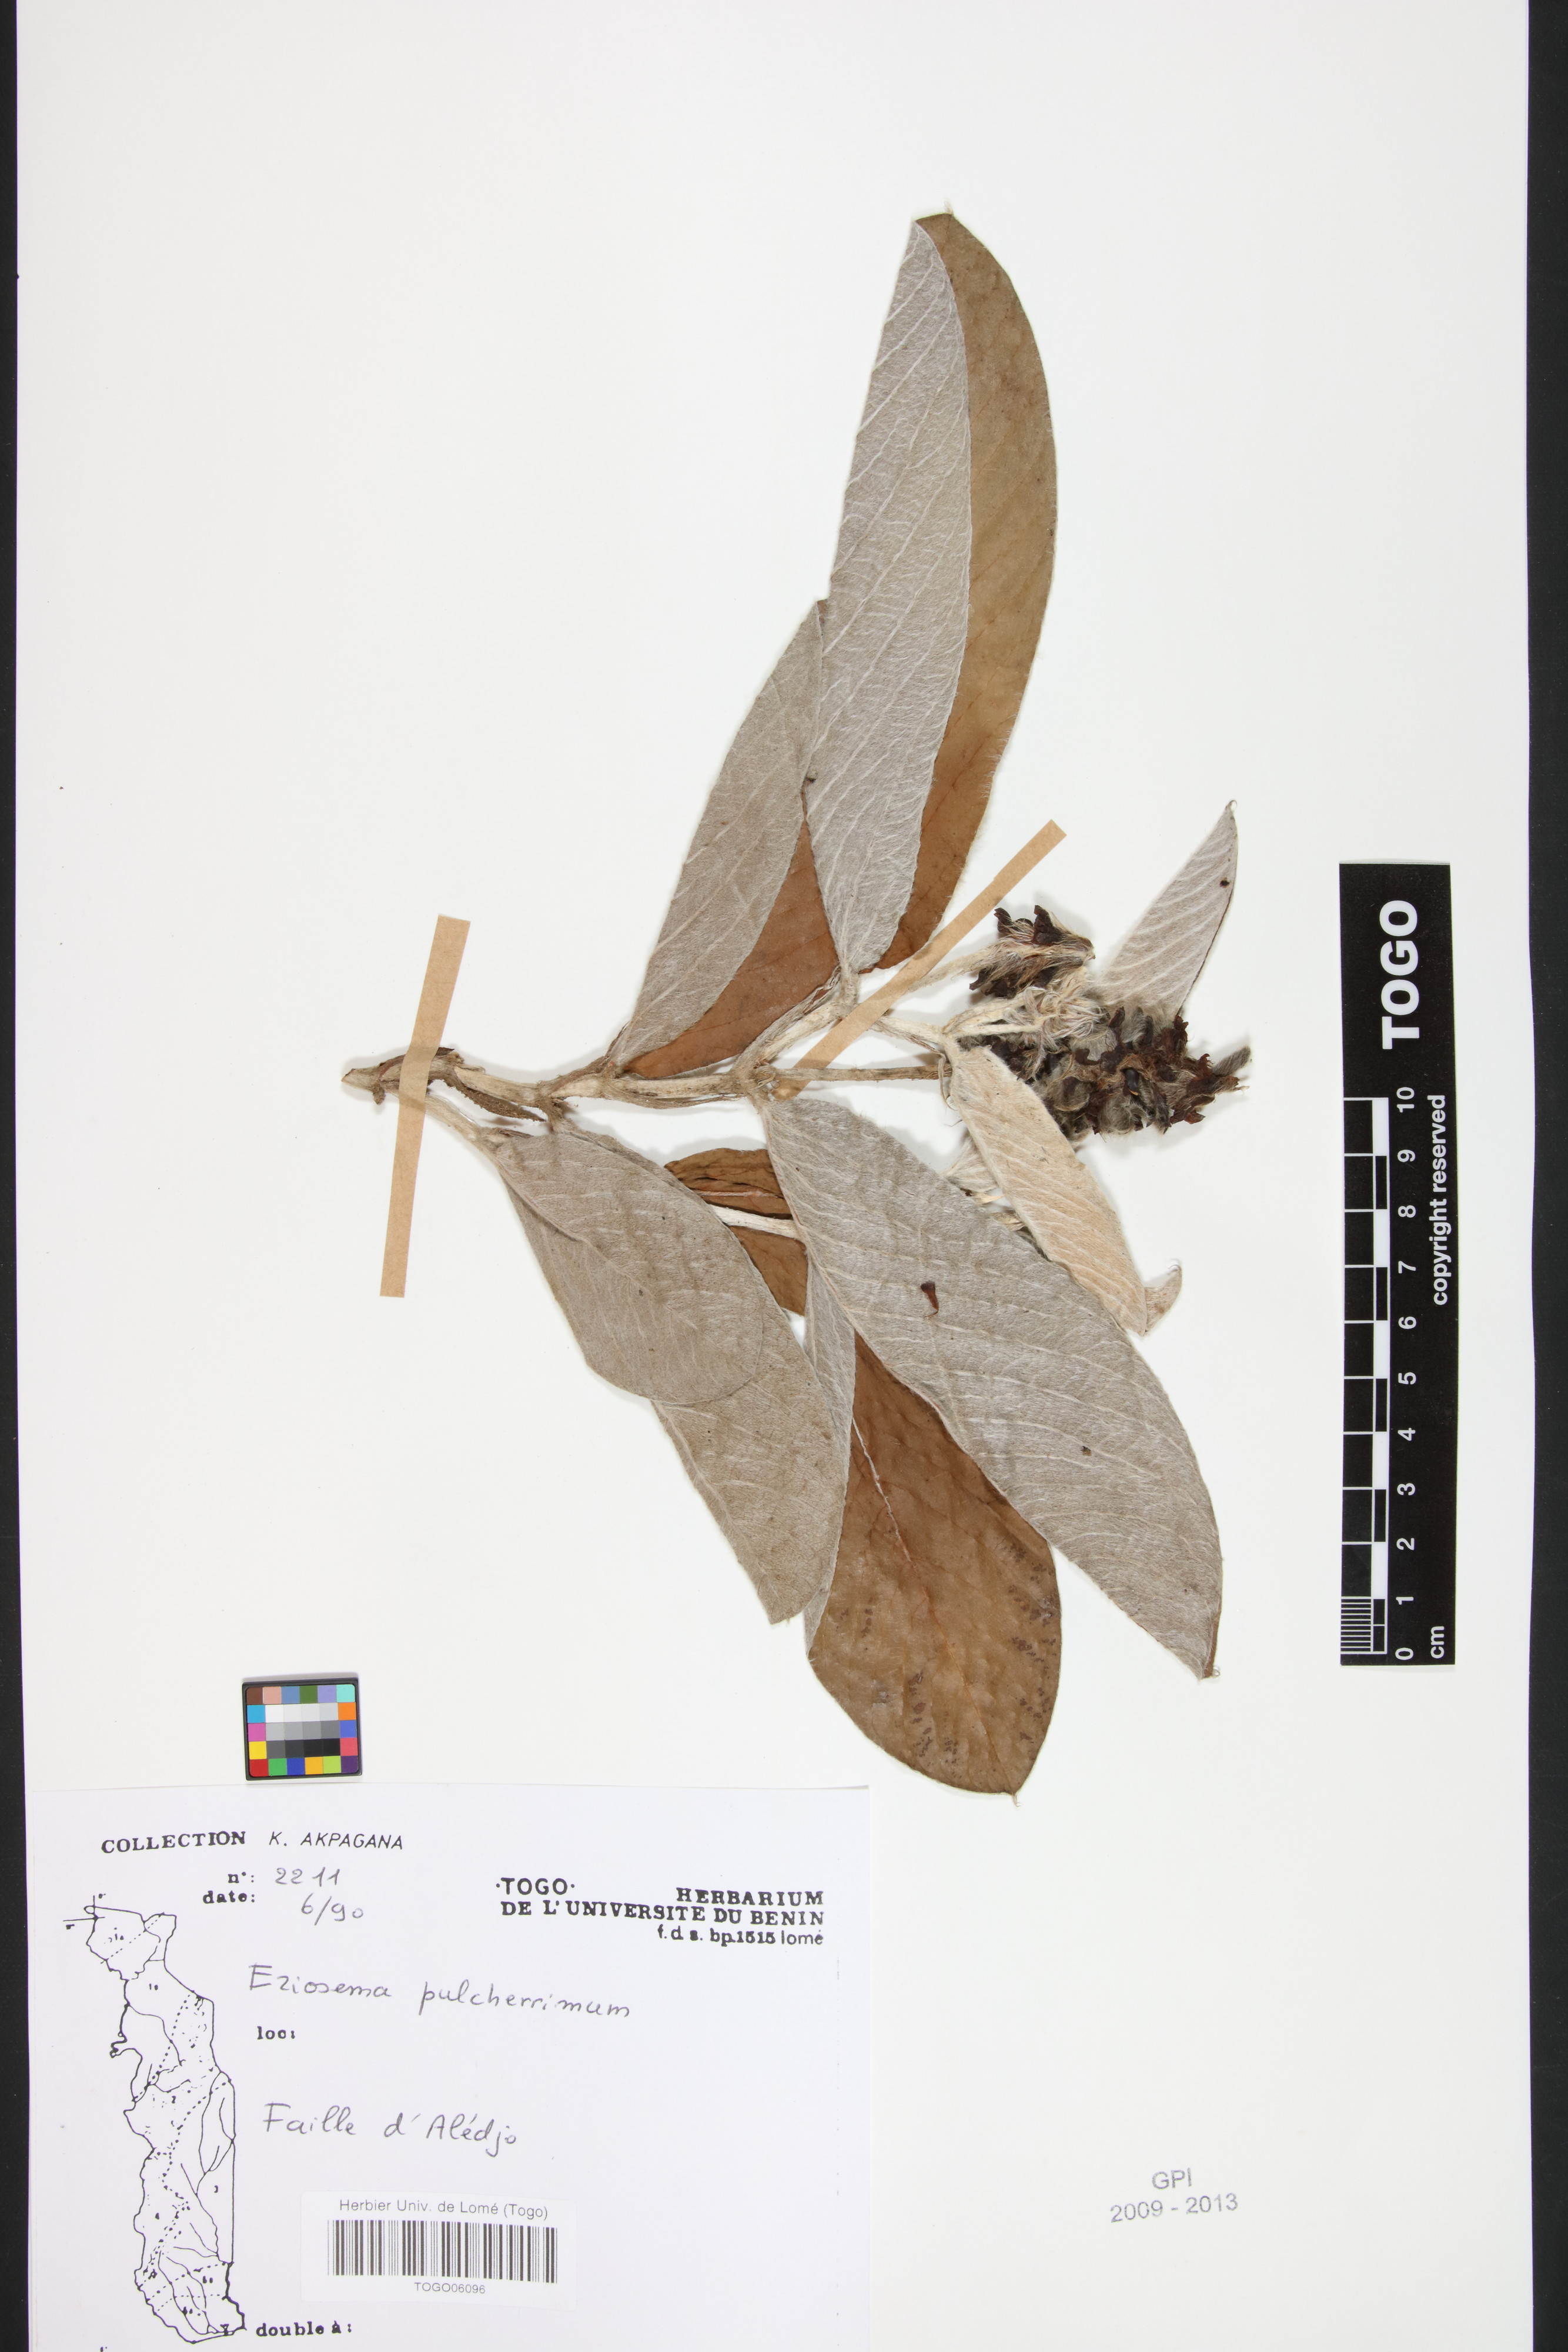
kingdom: Plantae
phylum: Tracheophyta
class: Magnoliopsida
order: Fabales
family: Fabaceae
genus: Eriosema
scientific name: Eriosema pulcherrimum
